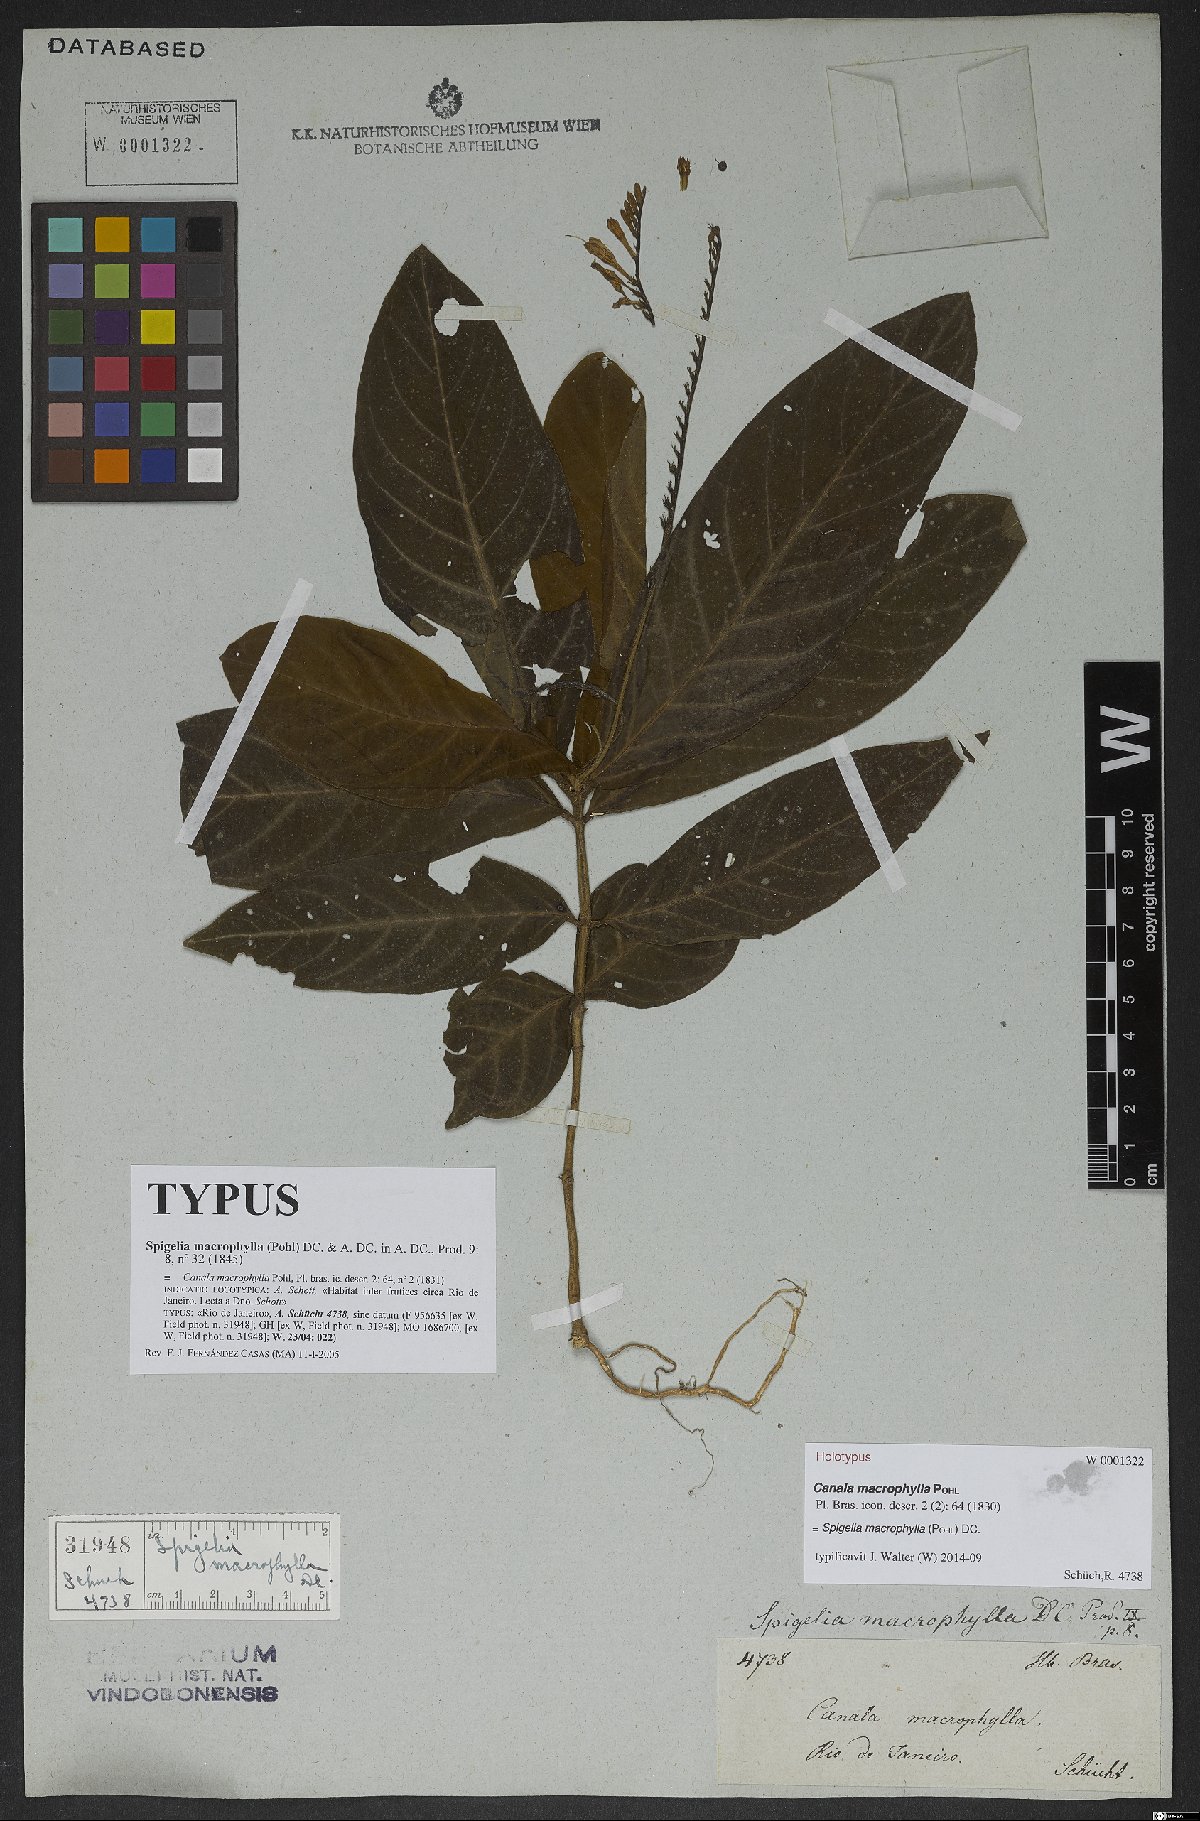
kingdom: Plantae
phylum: Tracheophyta
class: Magnoliopsida
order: Gentianales
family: Loganiaceae
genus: Spigelia
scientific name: Spigelia macrophylla
